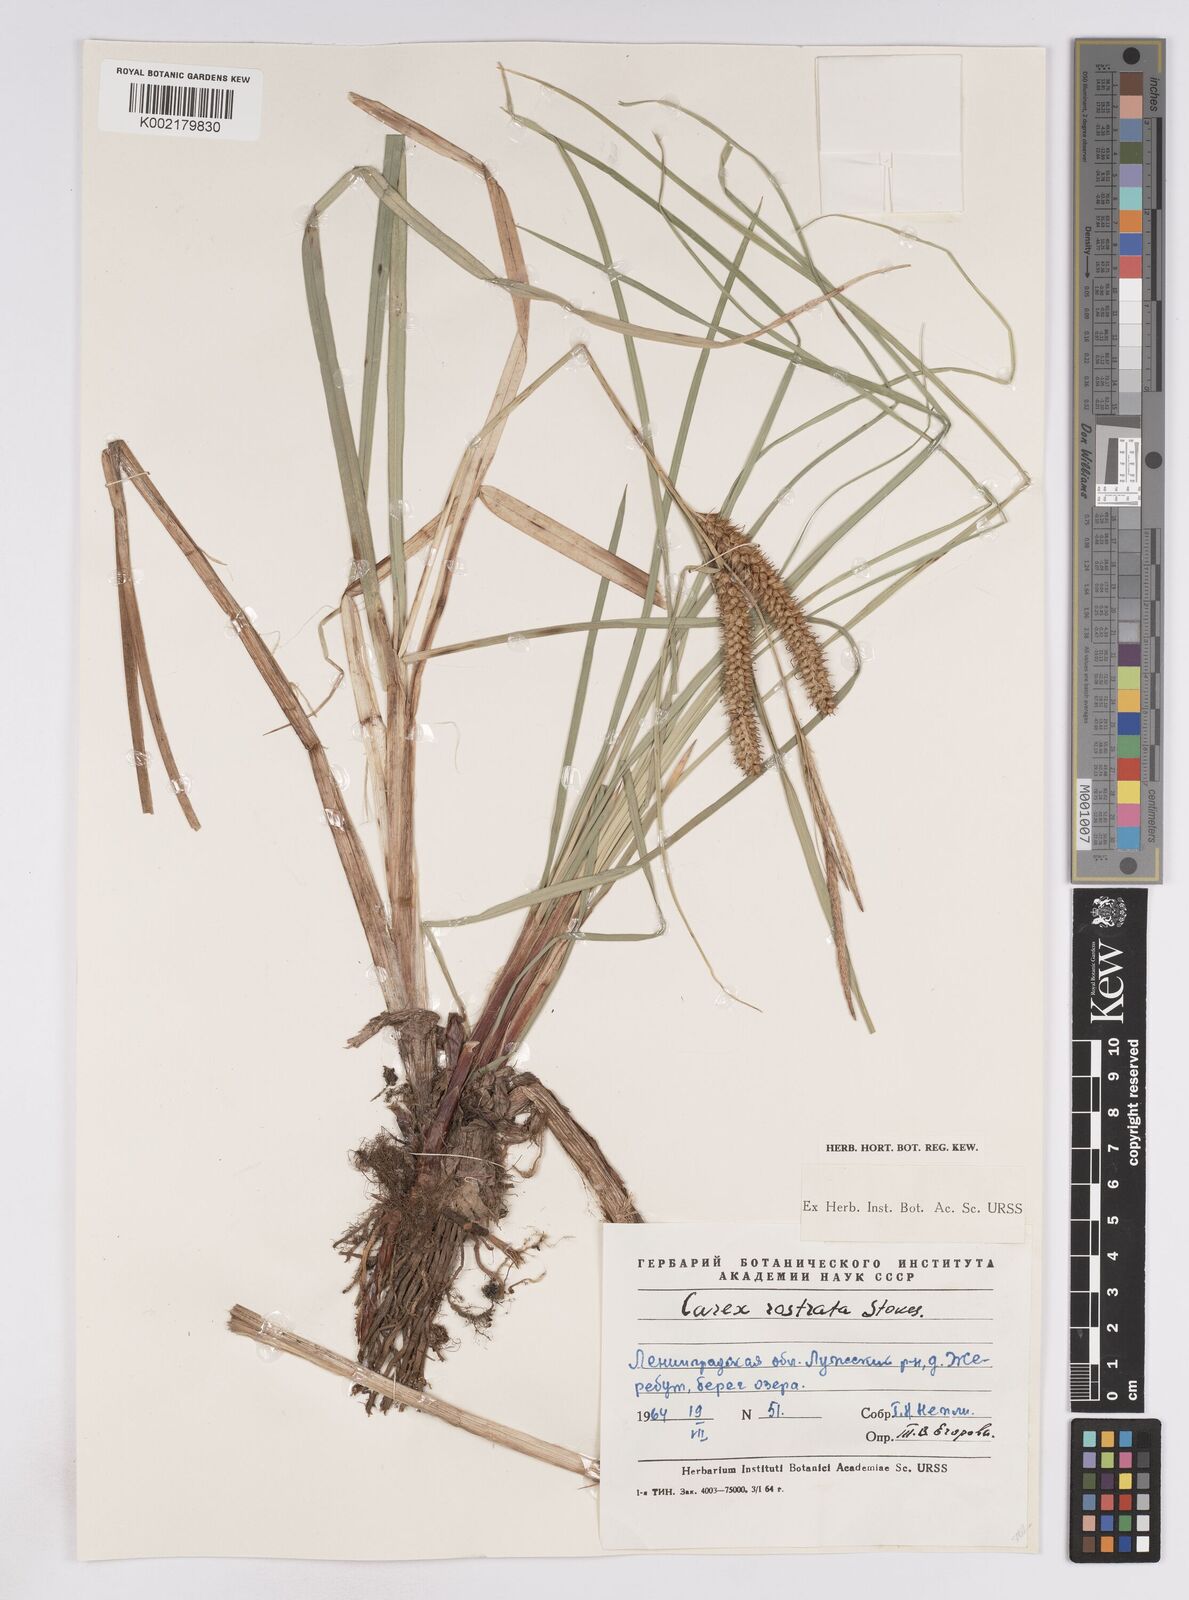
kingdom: Plantae
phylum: Tracheophyta
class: Liliopsida
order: Poales
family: Cyperaceae
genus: Carex
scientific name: Carex rostrata
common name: Bottle sedge
